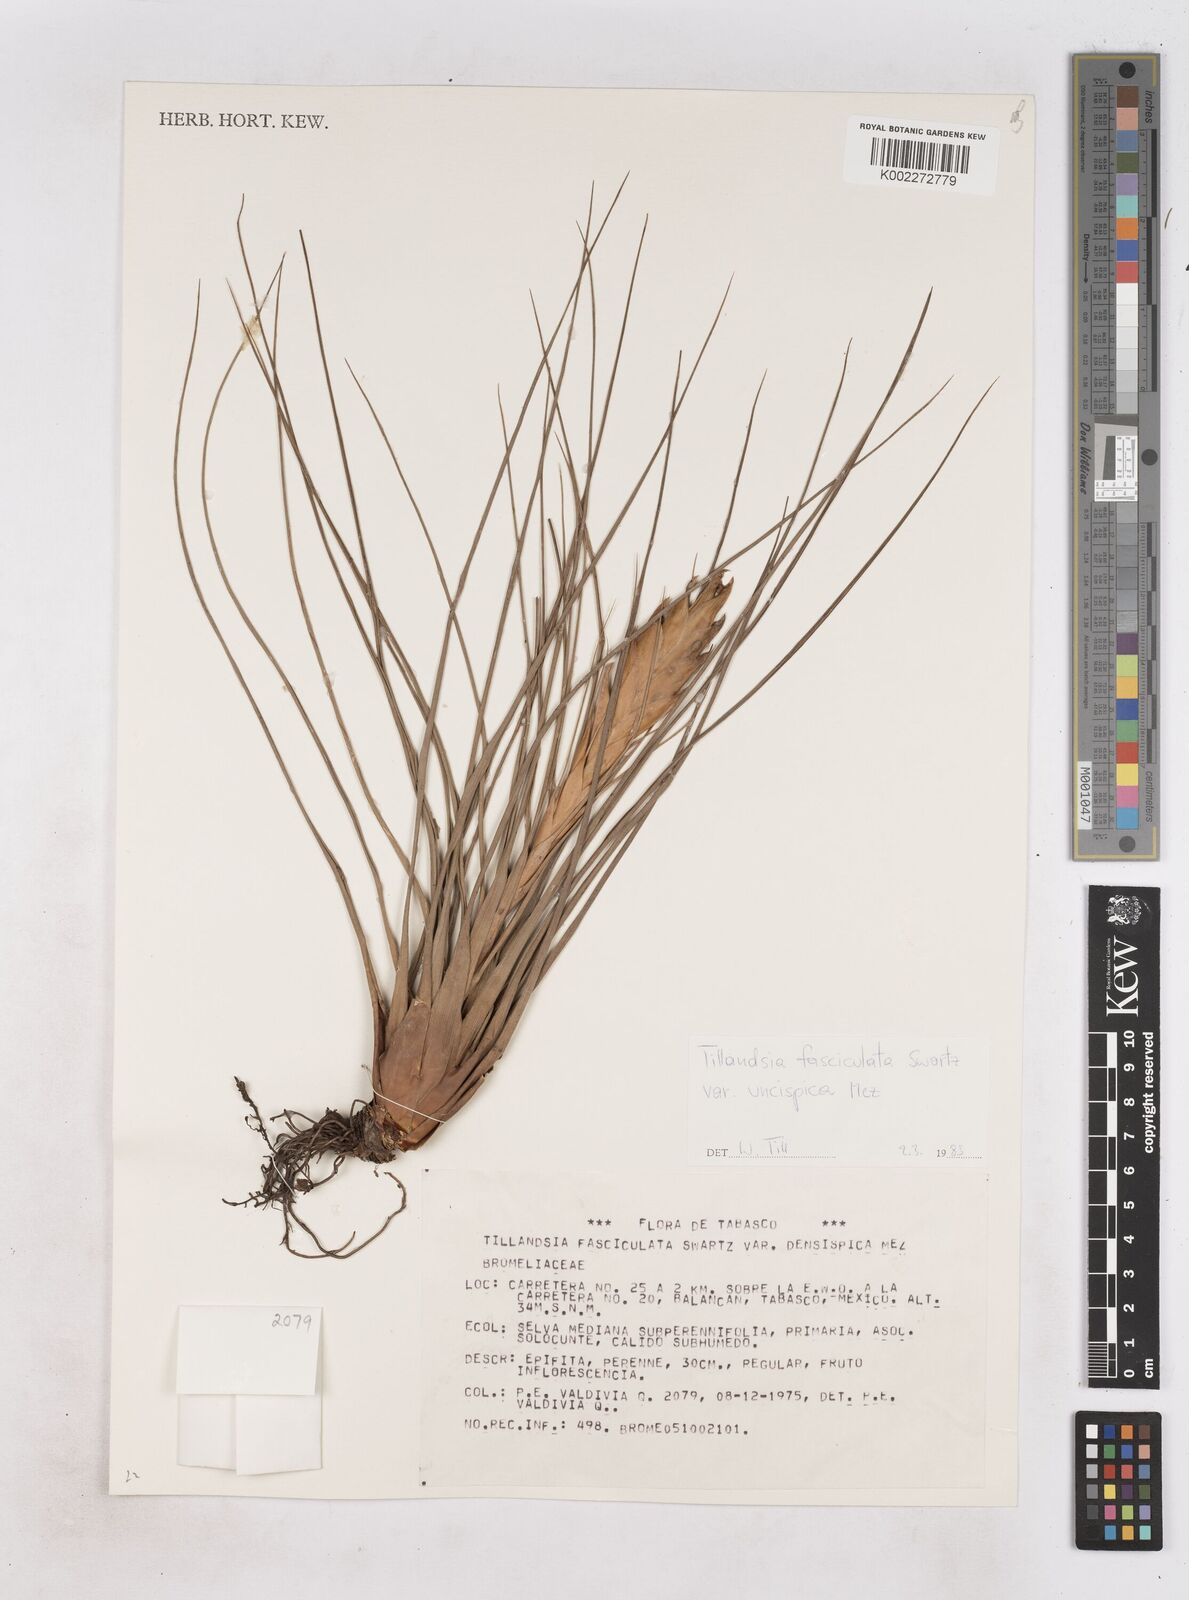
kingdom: Plantae
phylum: Tracheophyta
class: Liliopsida
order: Poales
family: Bromeliaceae
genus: Tillandsia
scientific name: Tillandsia fasciculata
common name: Giant airplant
